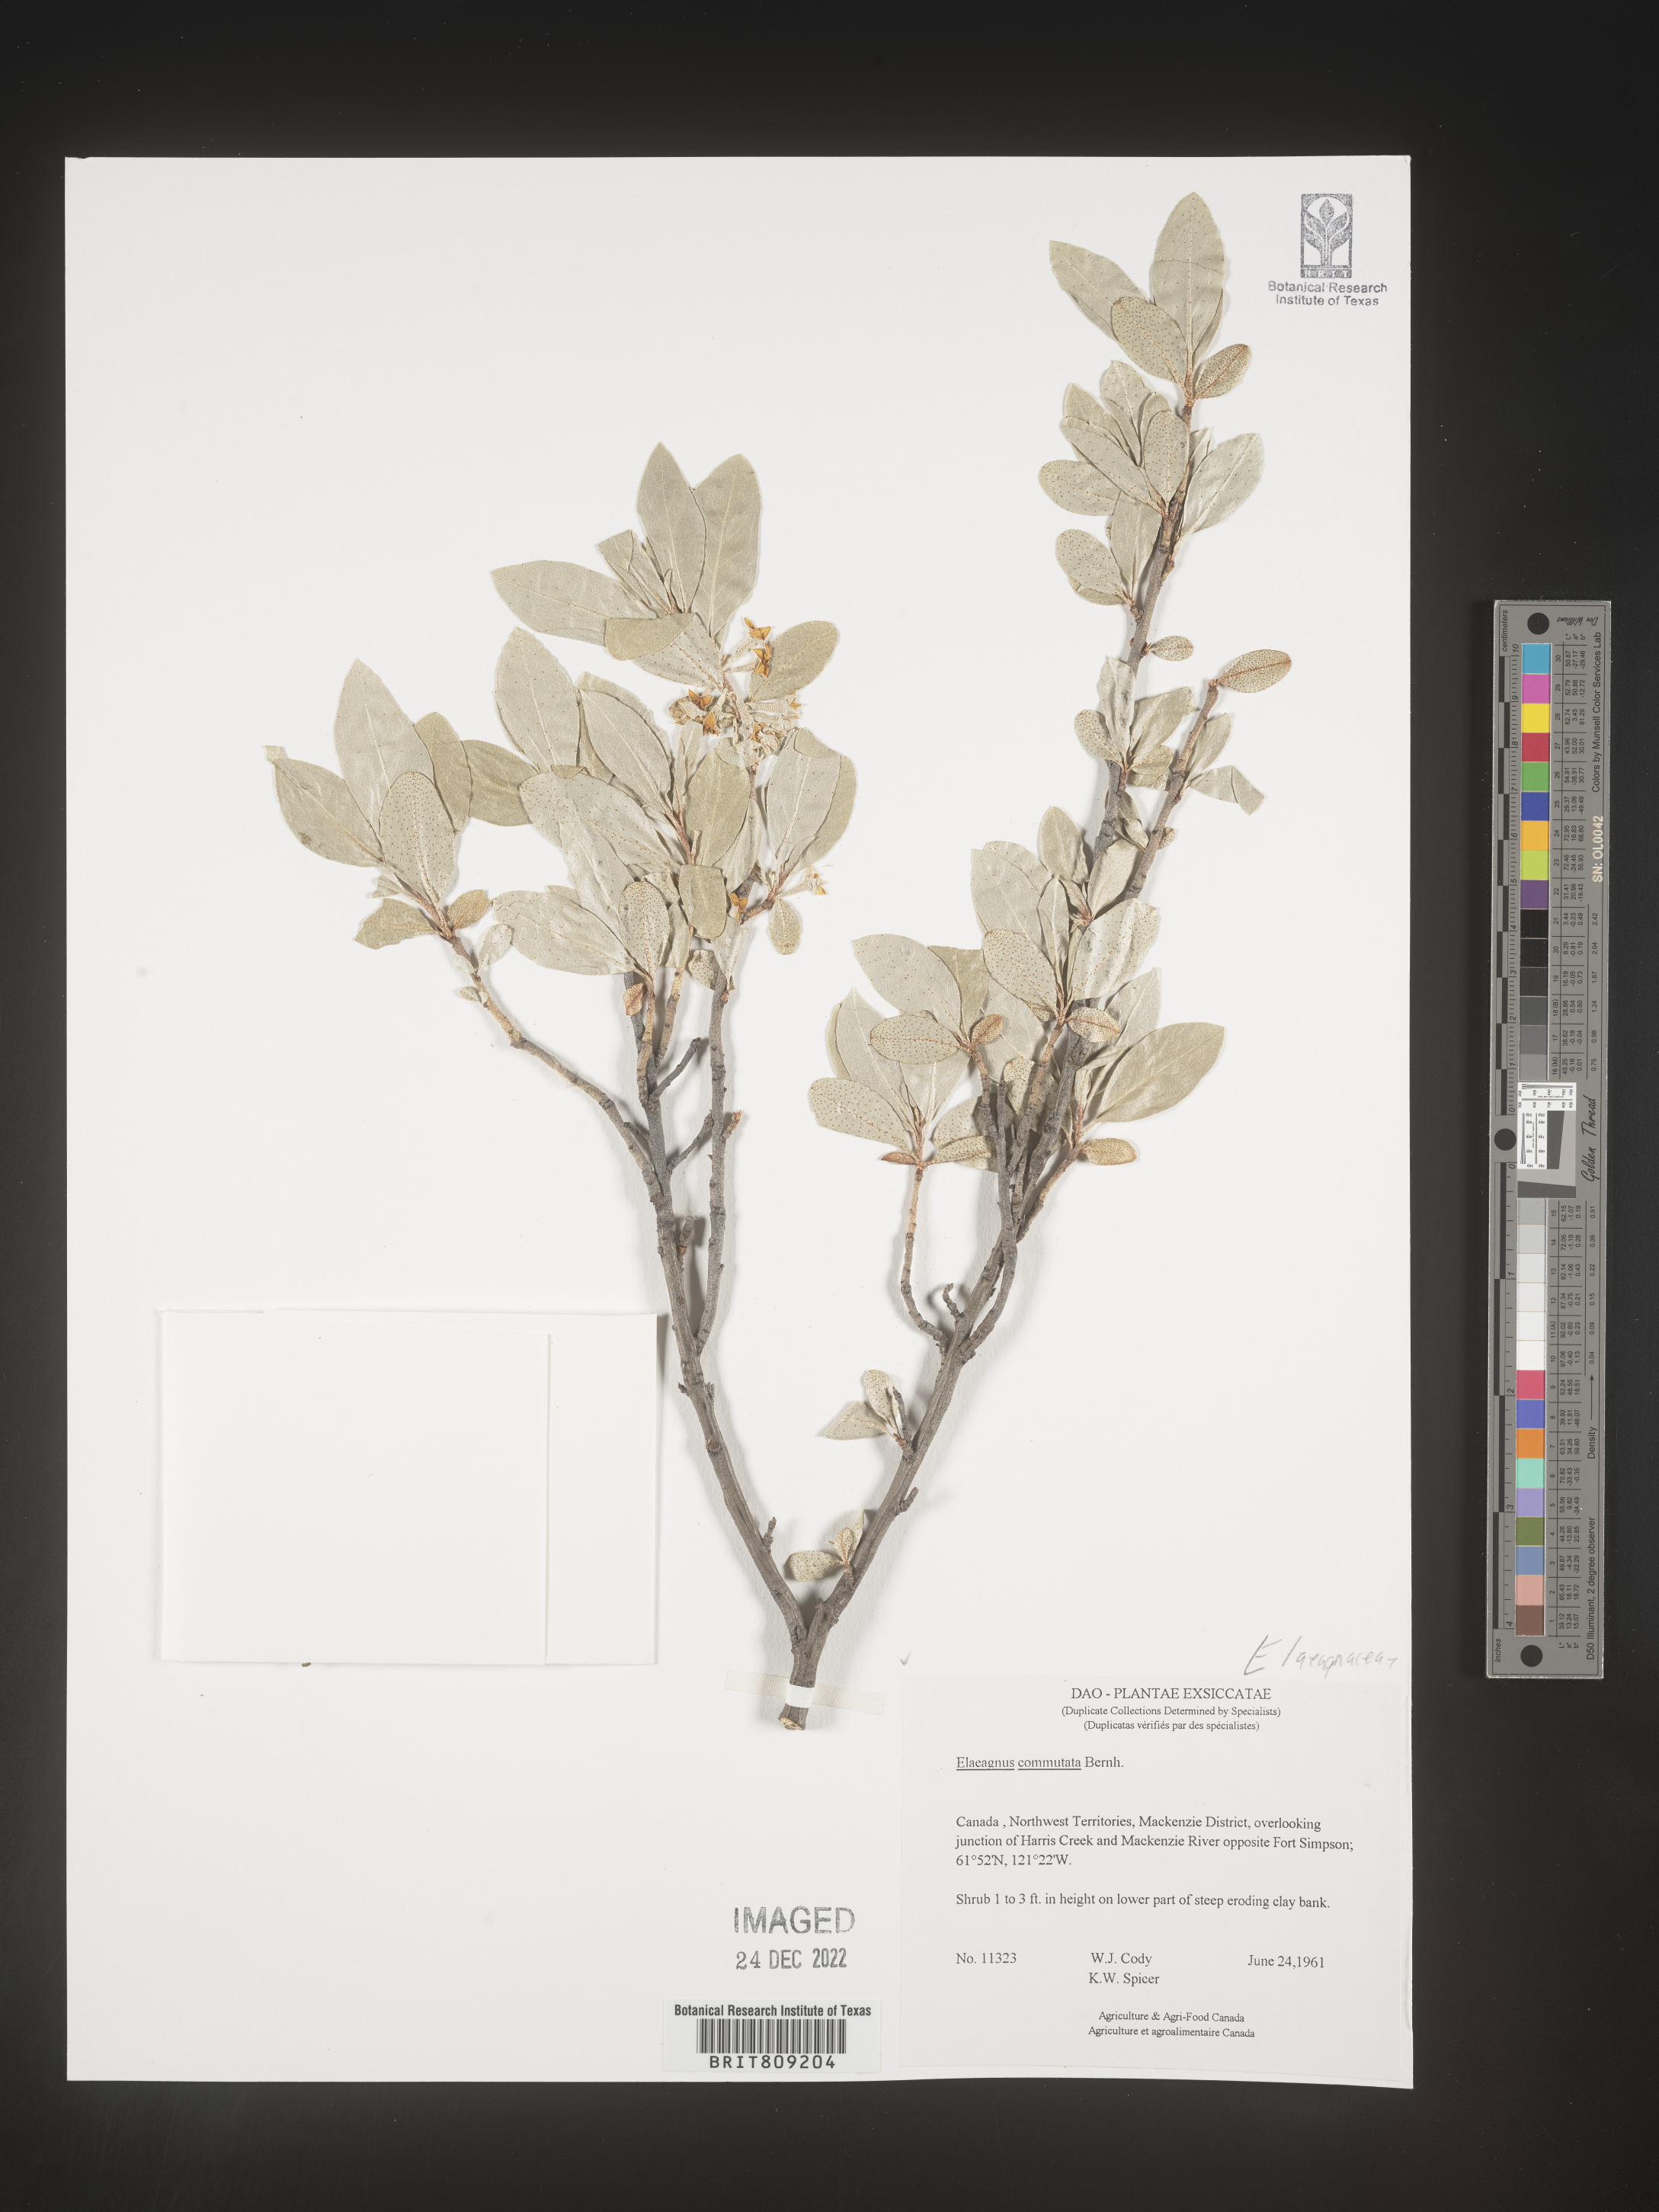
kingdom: Plantae
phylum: Tracheophyta
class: Magnoliopsida
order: Rosales
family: Elaeagnaceae
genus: Elaeagnus
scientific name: Elaeagnus
